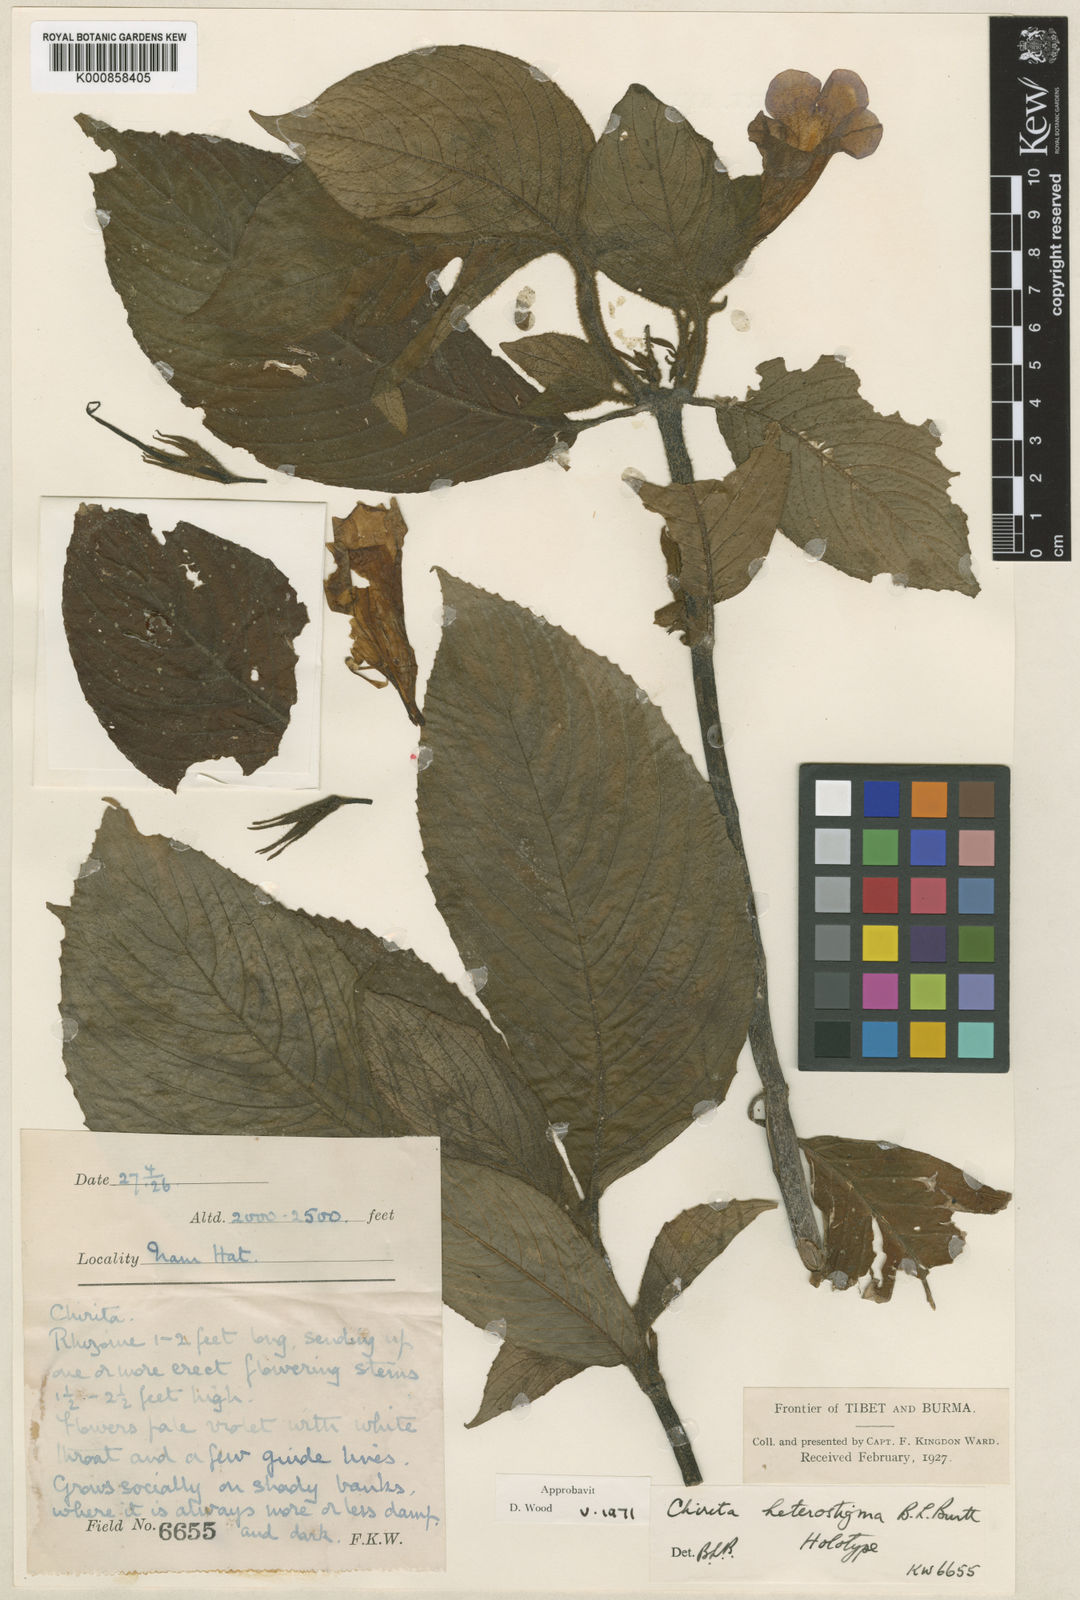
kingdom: Plantae
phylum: Tracheophyta
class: Magnoliopsida
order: Lamiales
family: Gesneriaceae
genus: Henckelia
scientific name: Henckelia heterostigma
